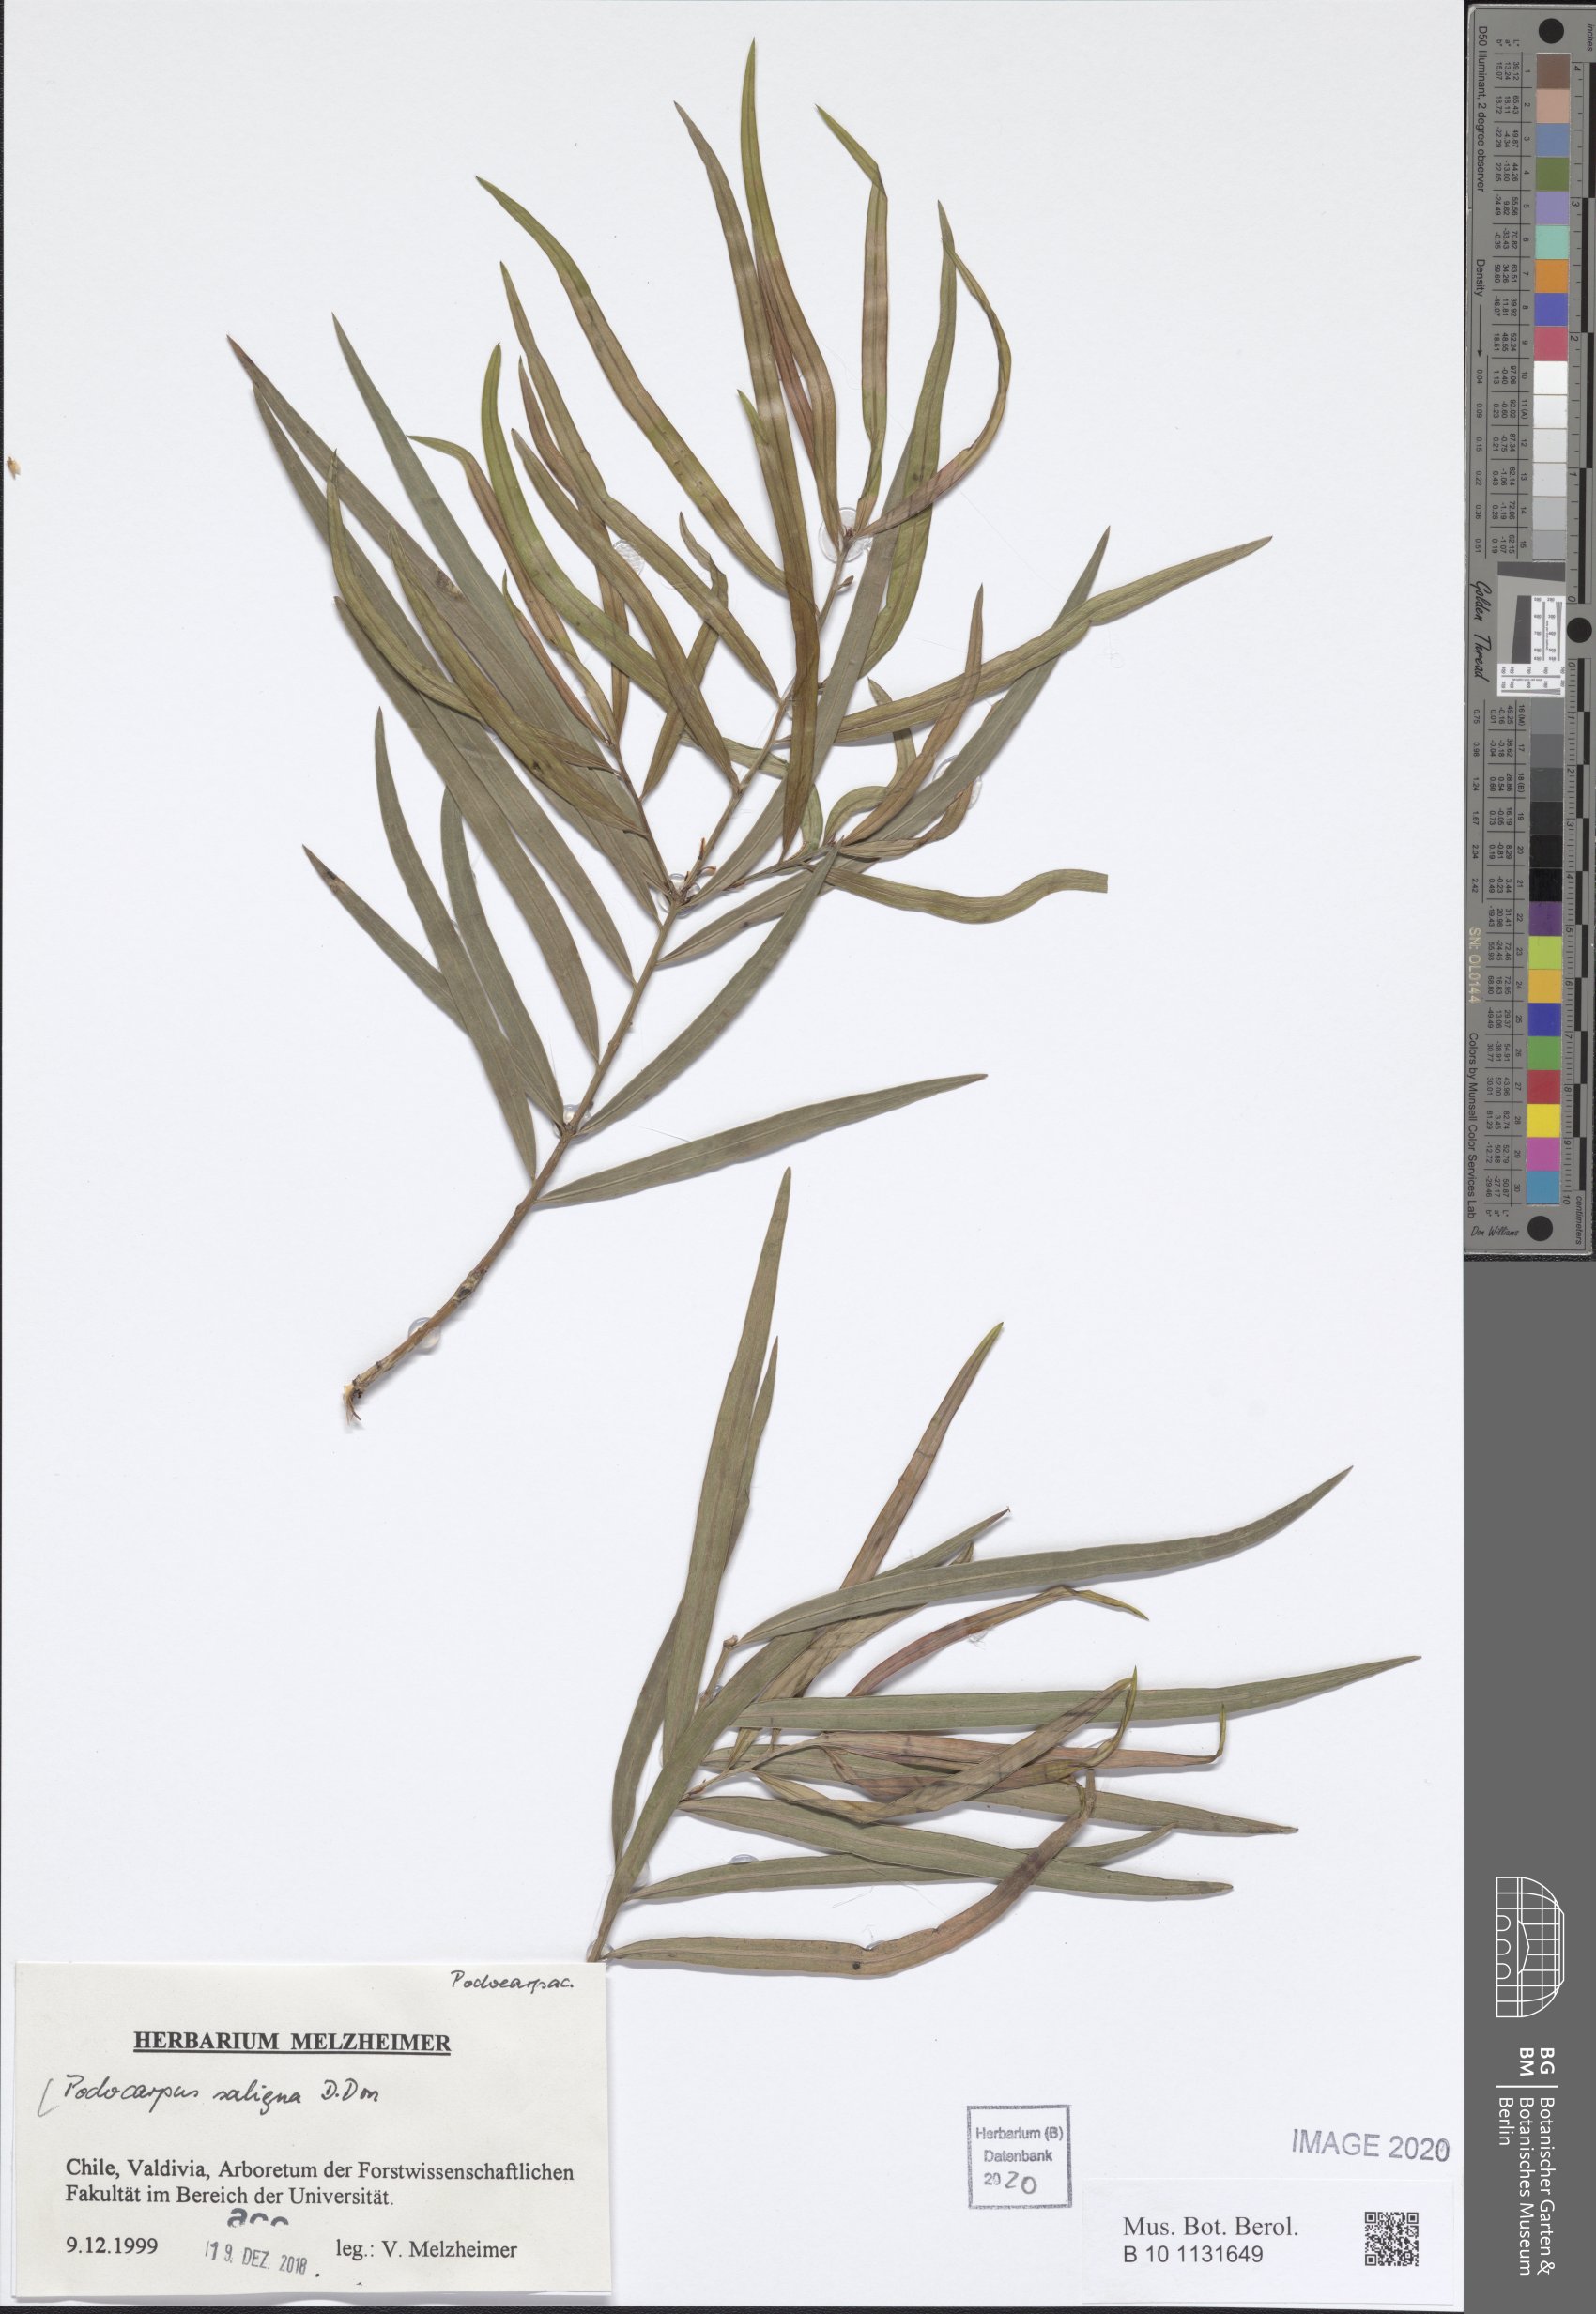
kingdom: Plantae
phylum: Tracheophyta
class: Pinopsida
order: Pinales
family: Podocarpaceae
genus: Podocarpus
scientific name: Podocarpus salignus
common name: Willow-leaf podocarp
